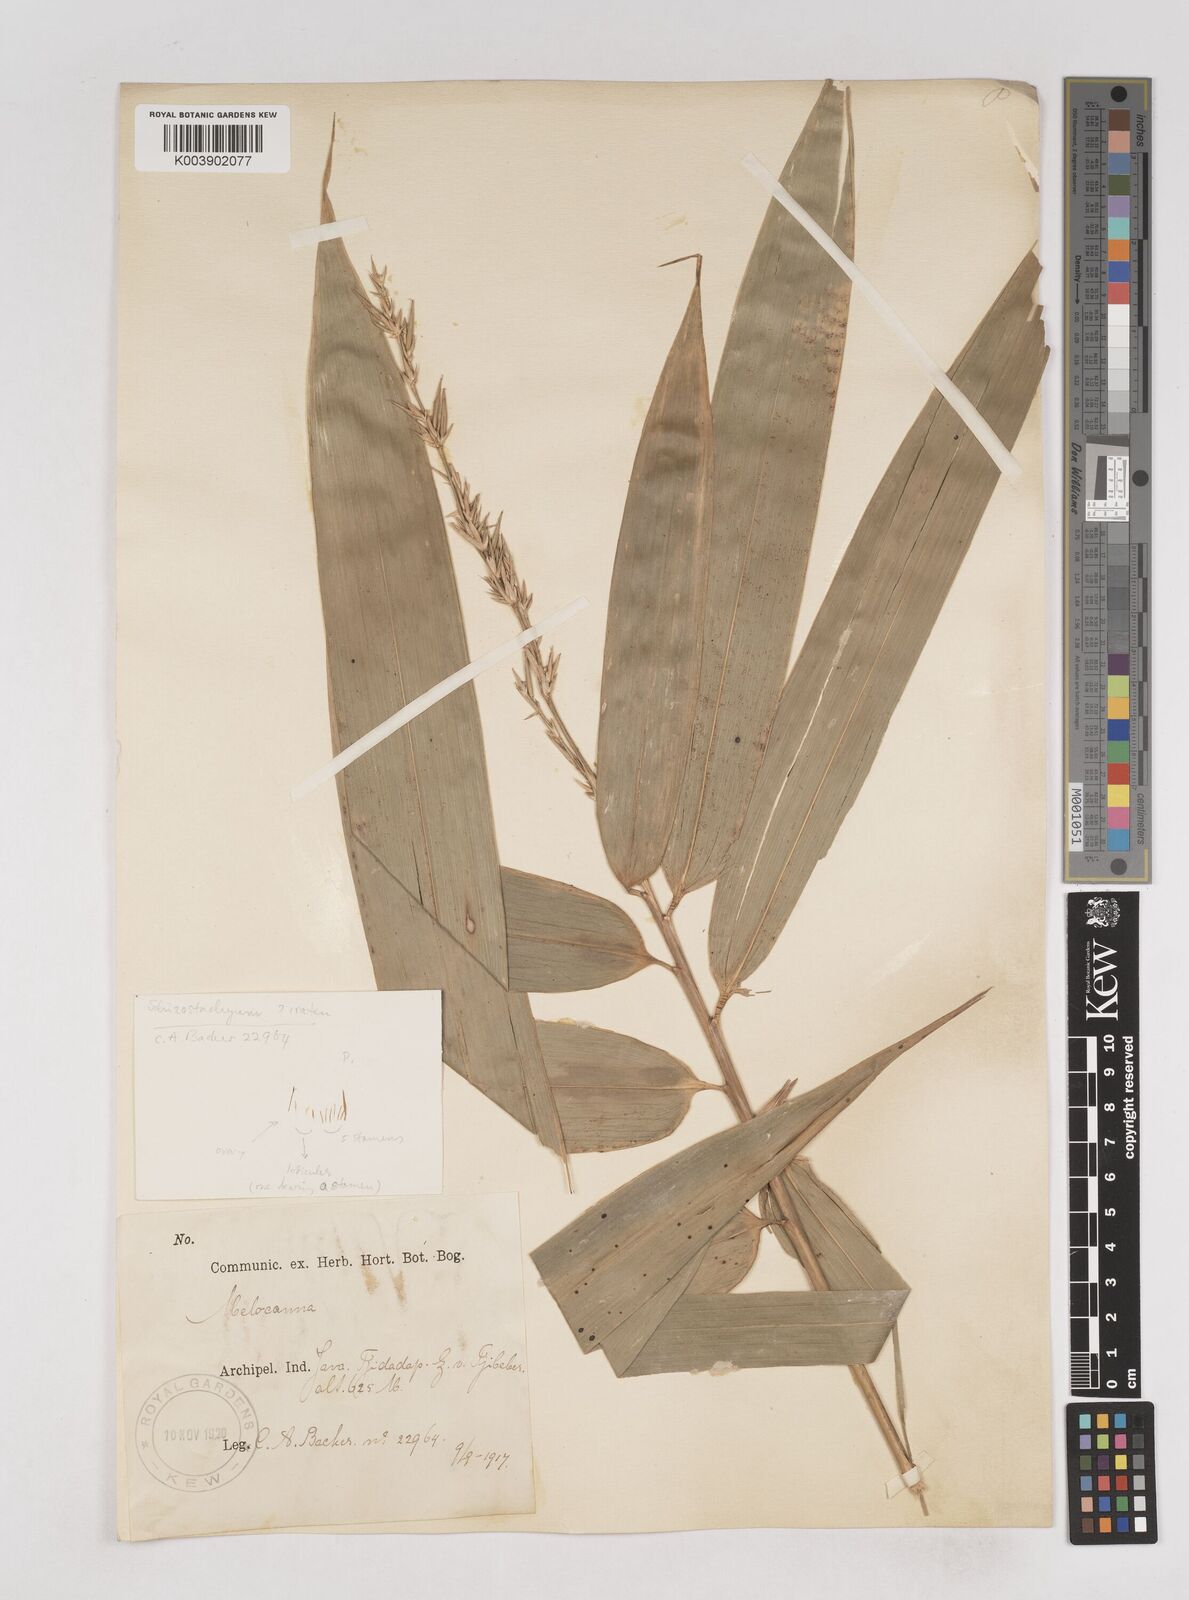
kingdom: Plantae
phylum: Tracheophyta
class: Liliopsida
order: Poales
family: Poaceae
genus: Schizostachyum
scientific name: Schizostachyum
